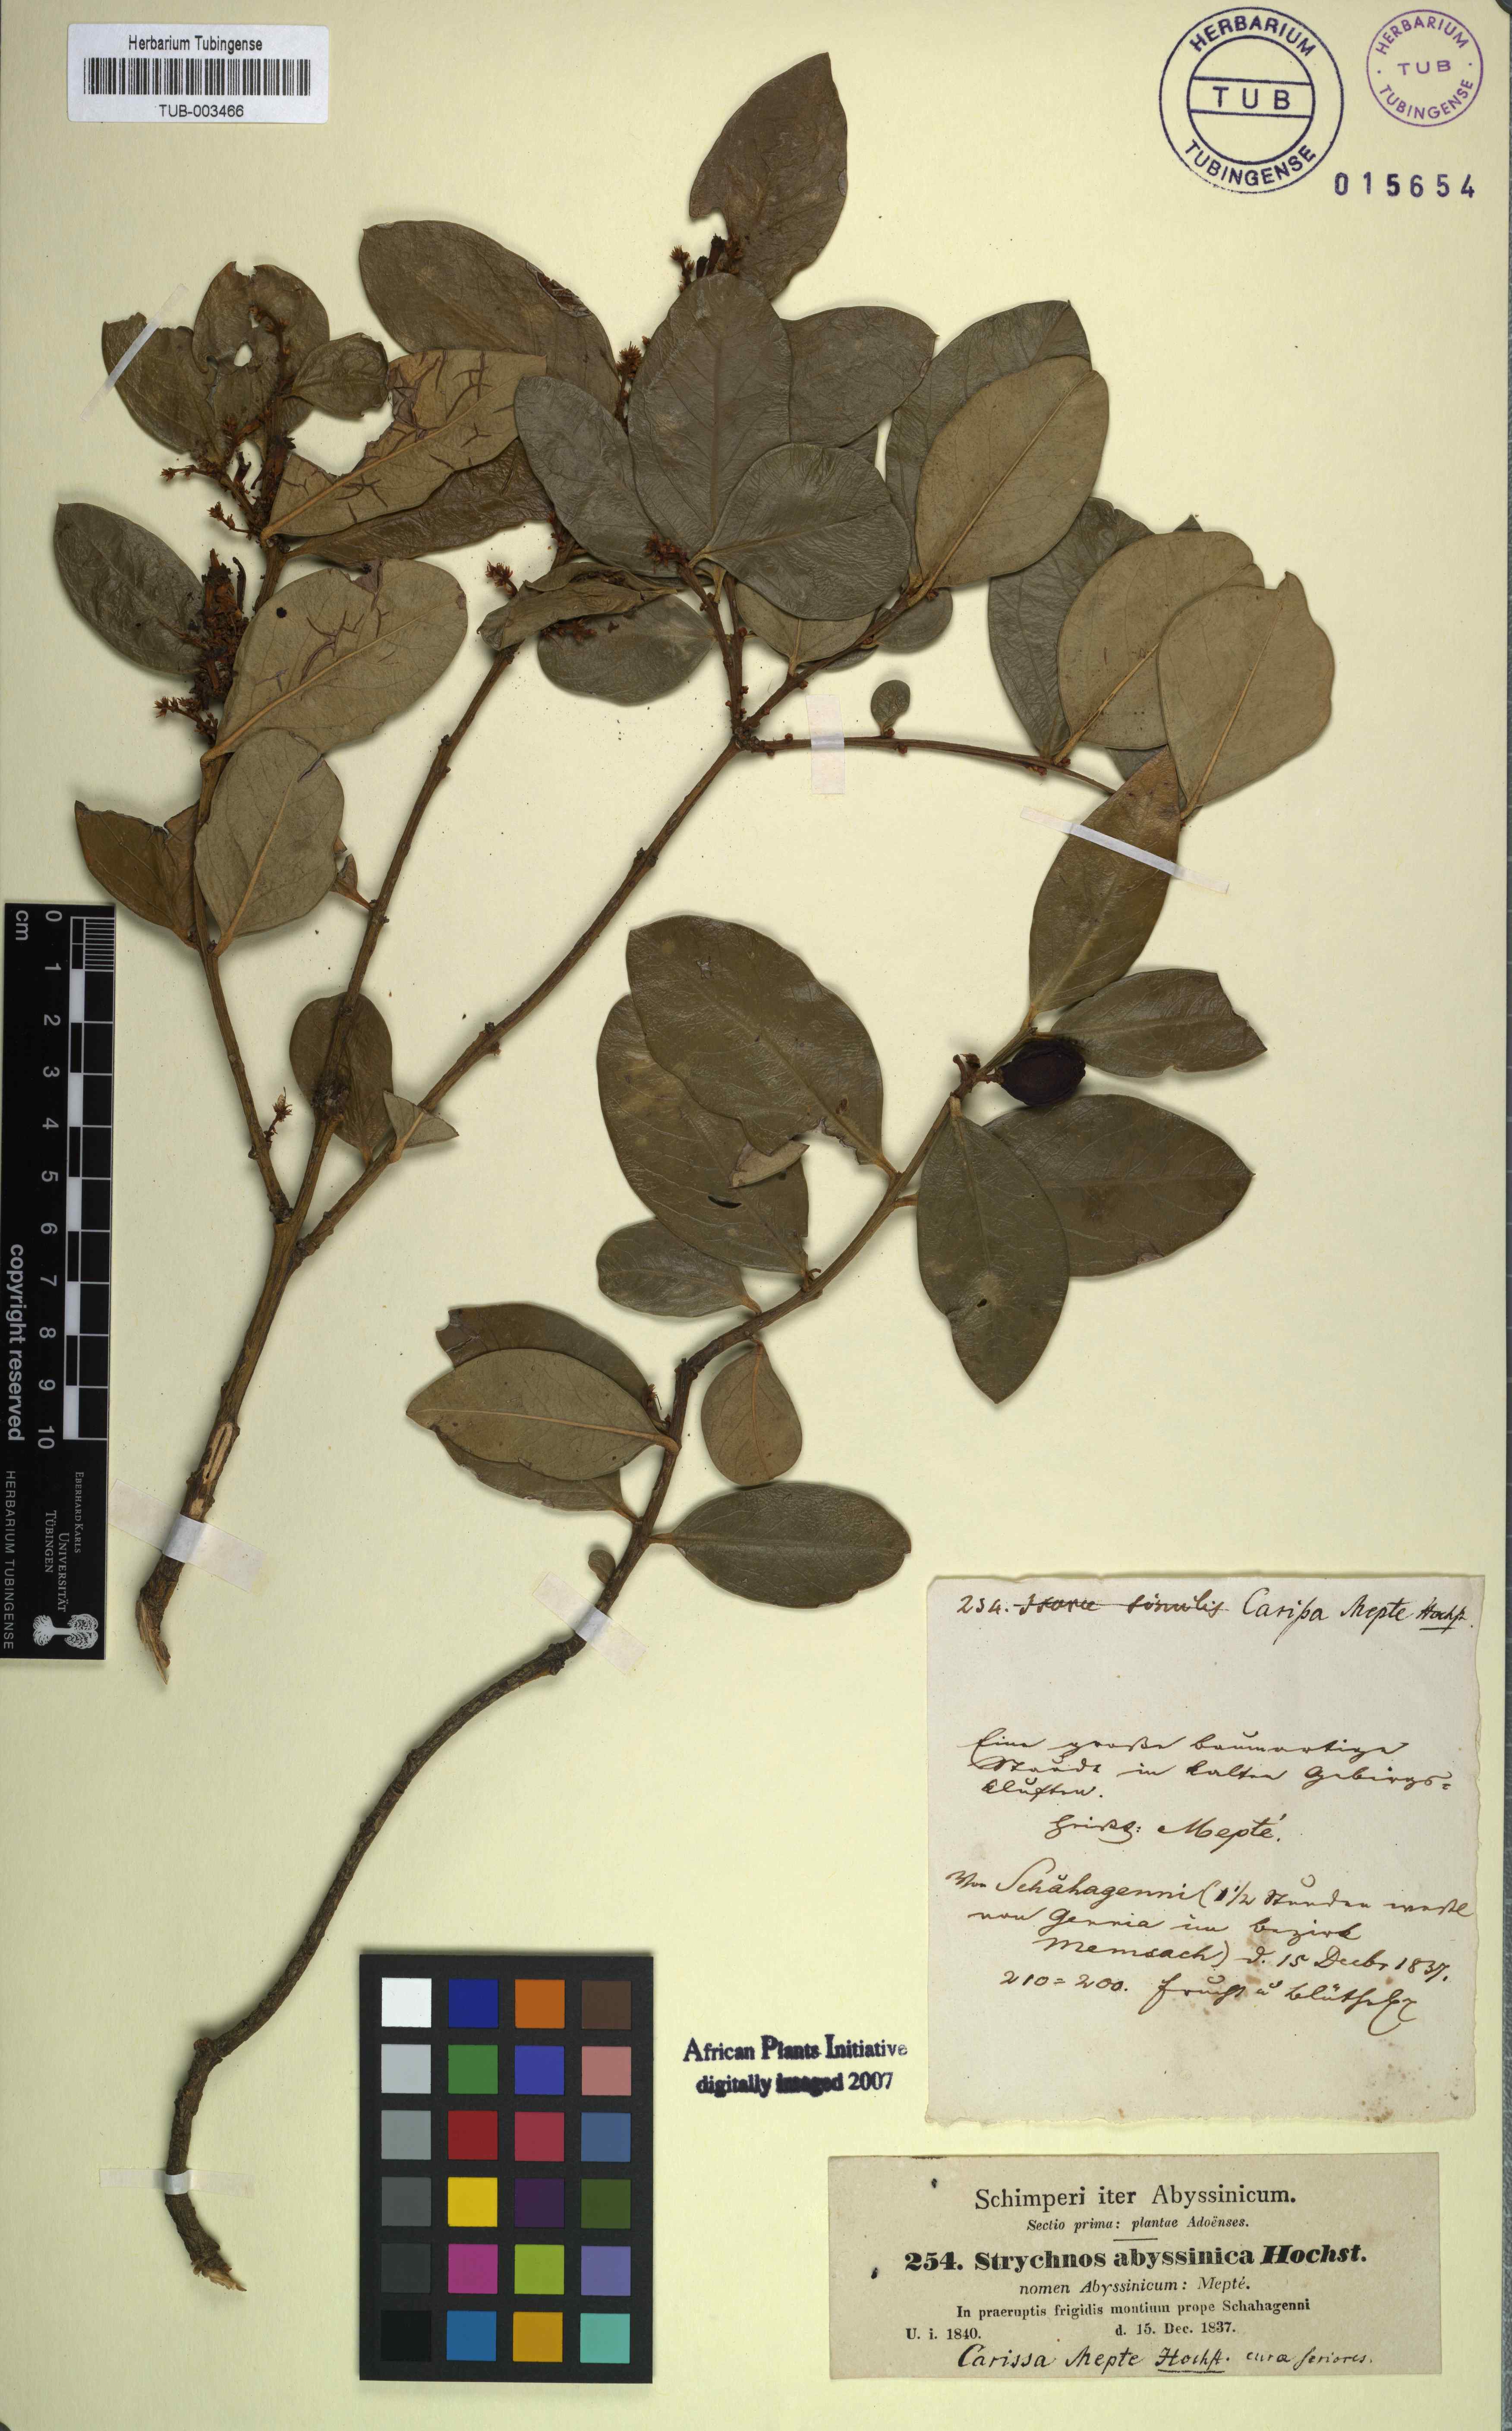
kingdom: Plantae
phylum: Tracheophyta
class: Magnoliopsida
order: Gentianales
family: Apocynaceae
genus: Carissa
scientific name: Carissa
